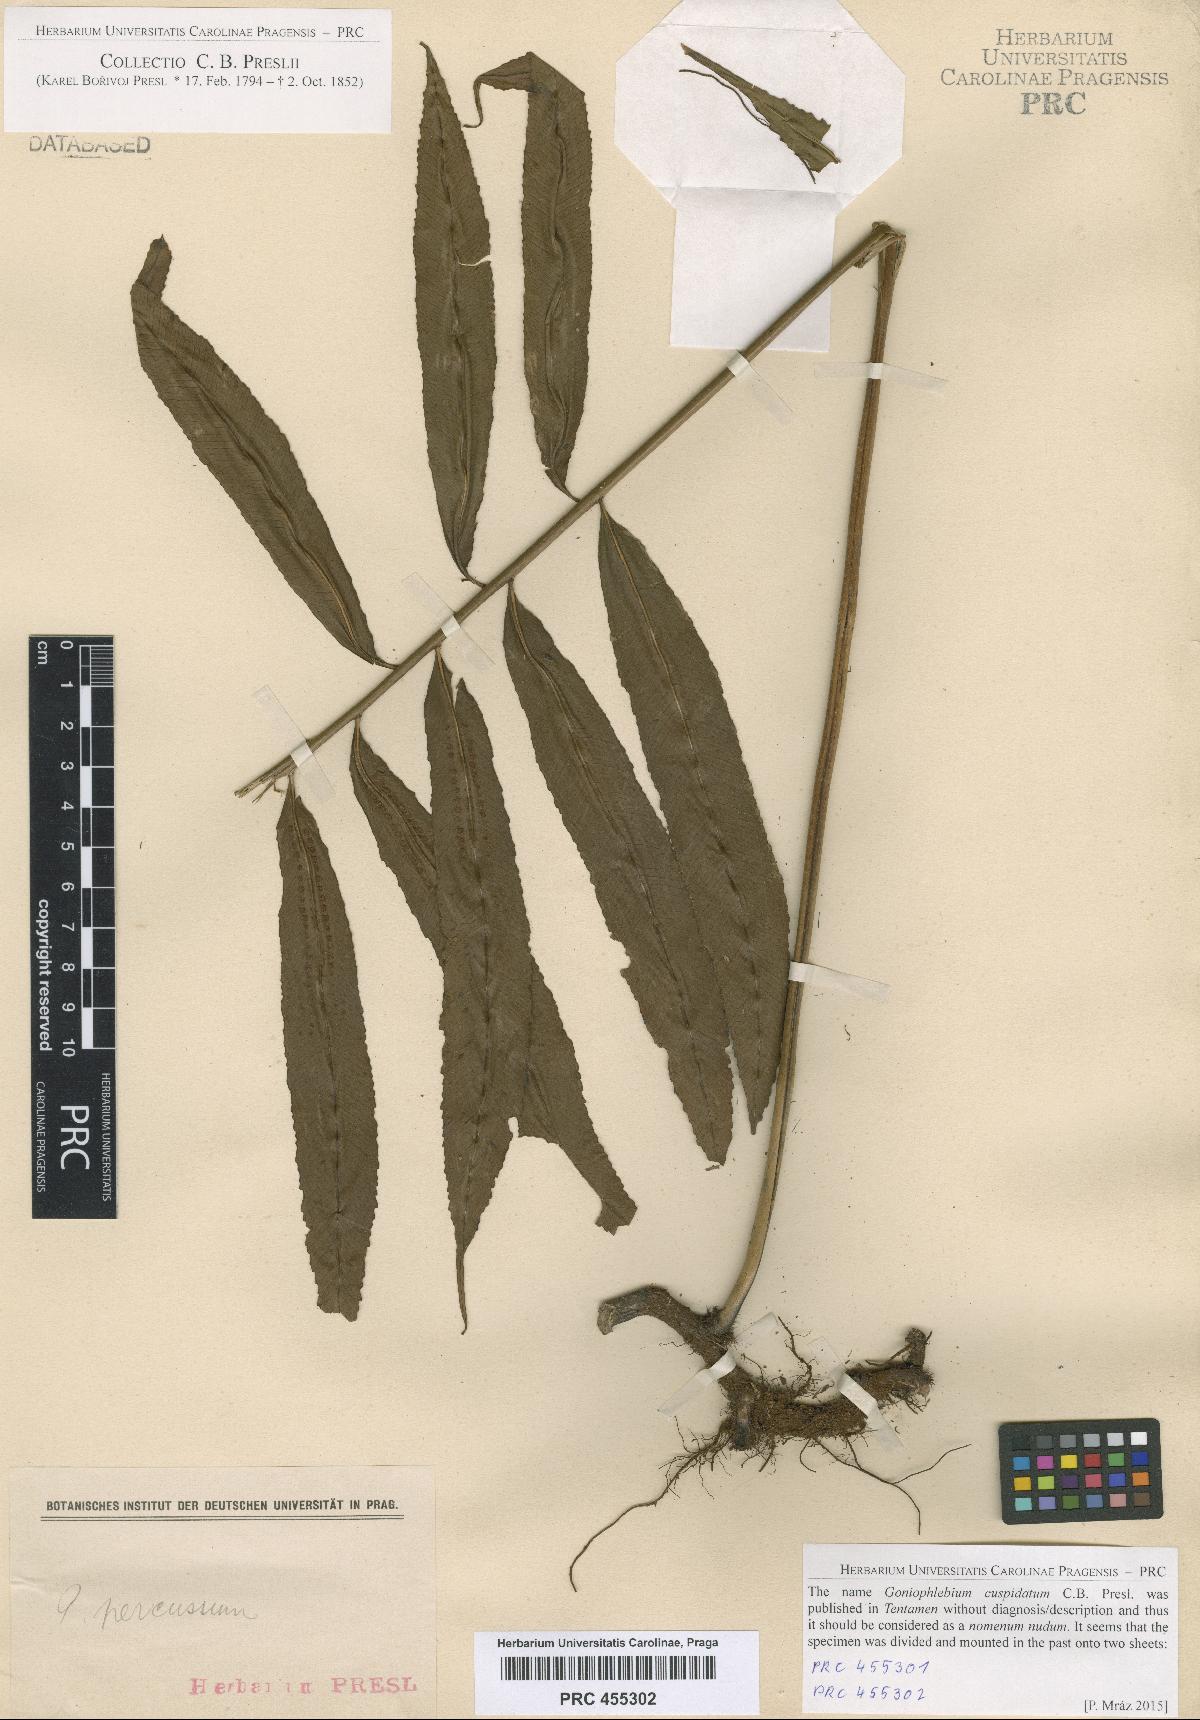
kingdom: Plantae
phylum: Tracheophyta
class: Polypodiopsida
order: Polypodiales
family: Polypodiaceae
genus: Goniophlebium
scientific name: Goniophlebium persicifolium
